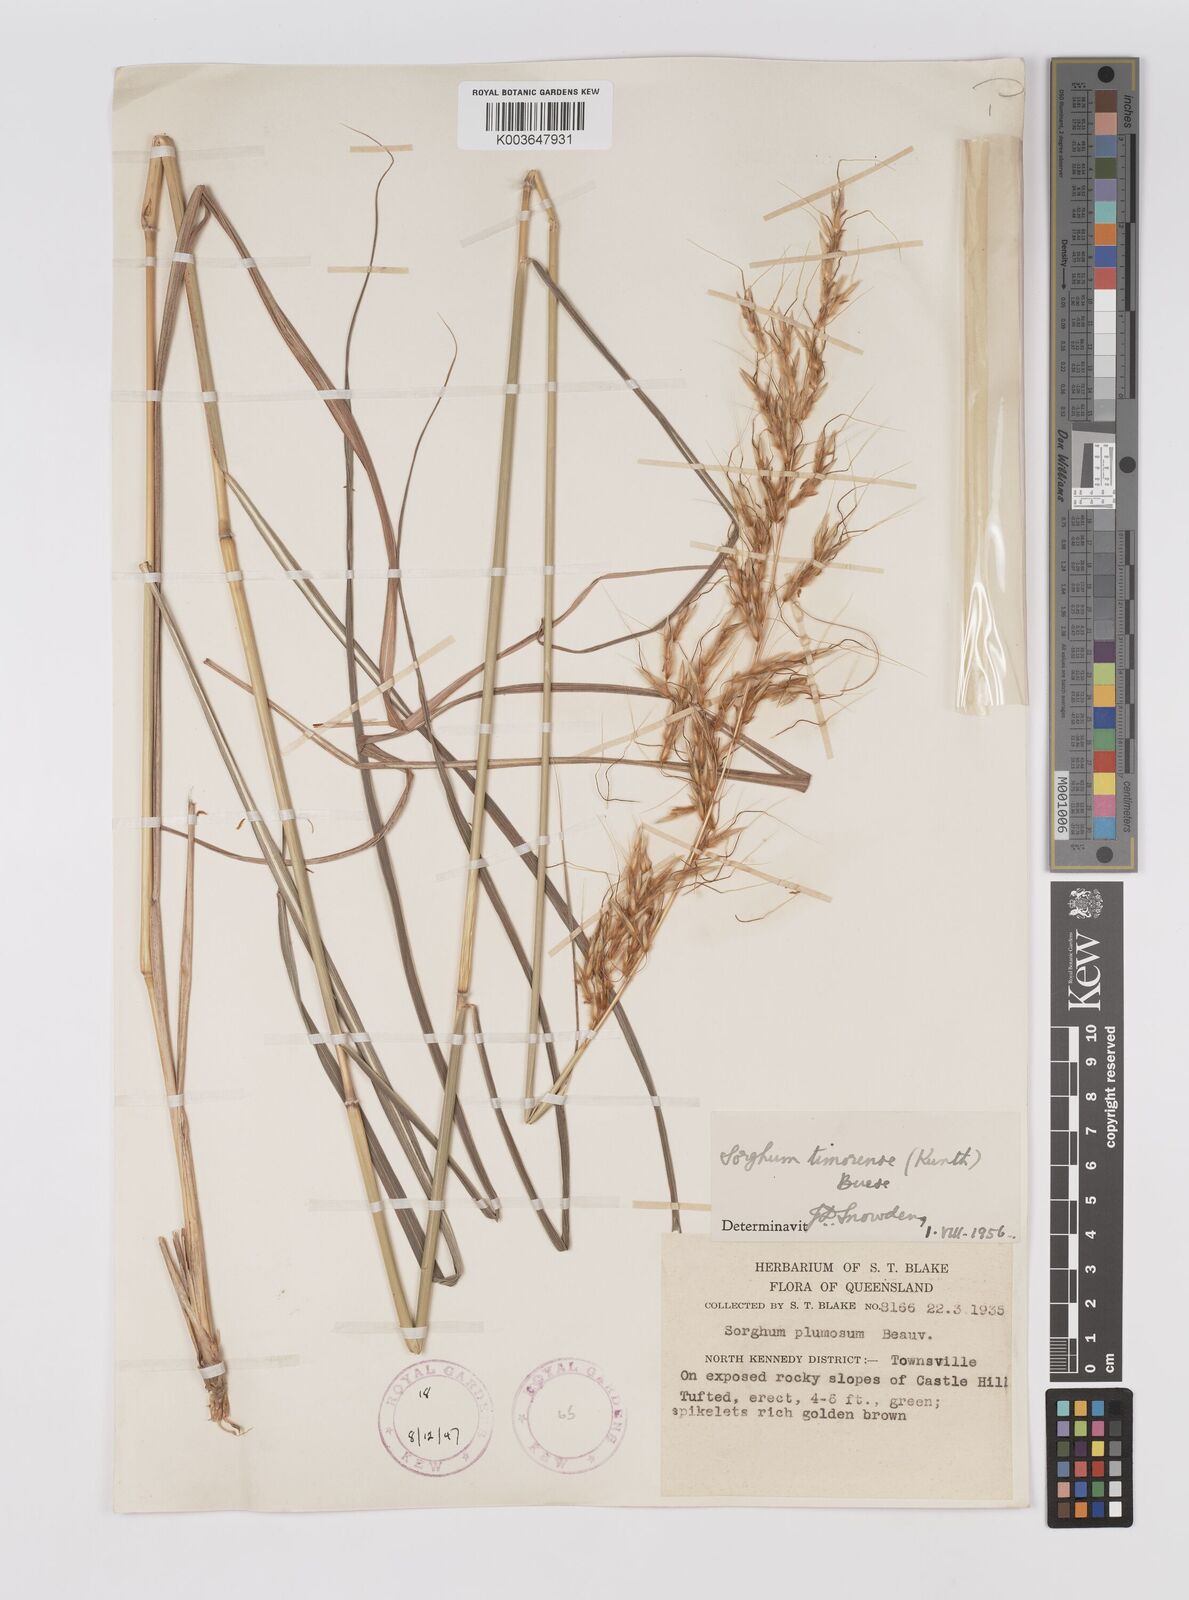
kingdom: Plantae
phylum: Tracheophyta
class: Liliopsida
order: Poales
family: Poaceae
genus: Sarga
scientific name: Sarga timorensis
